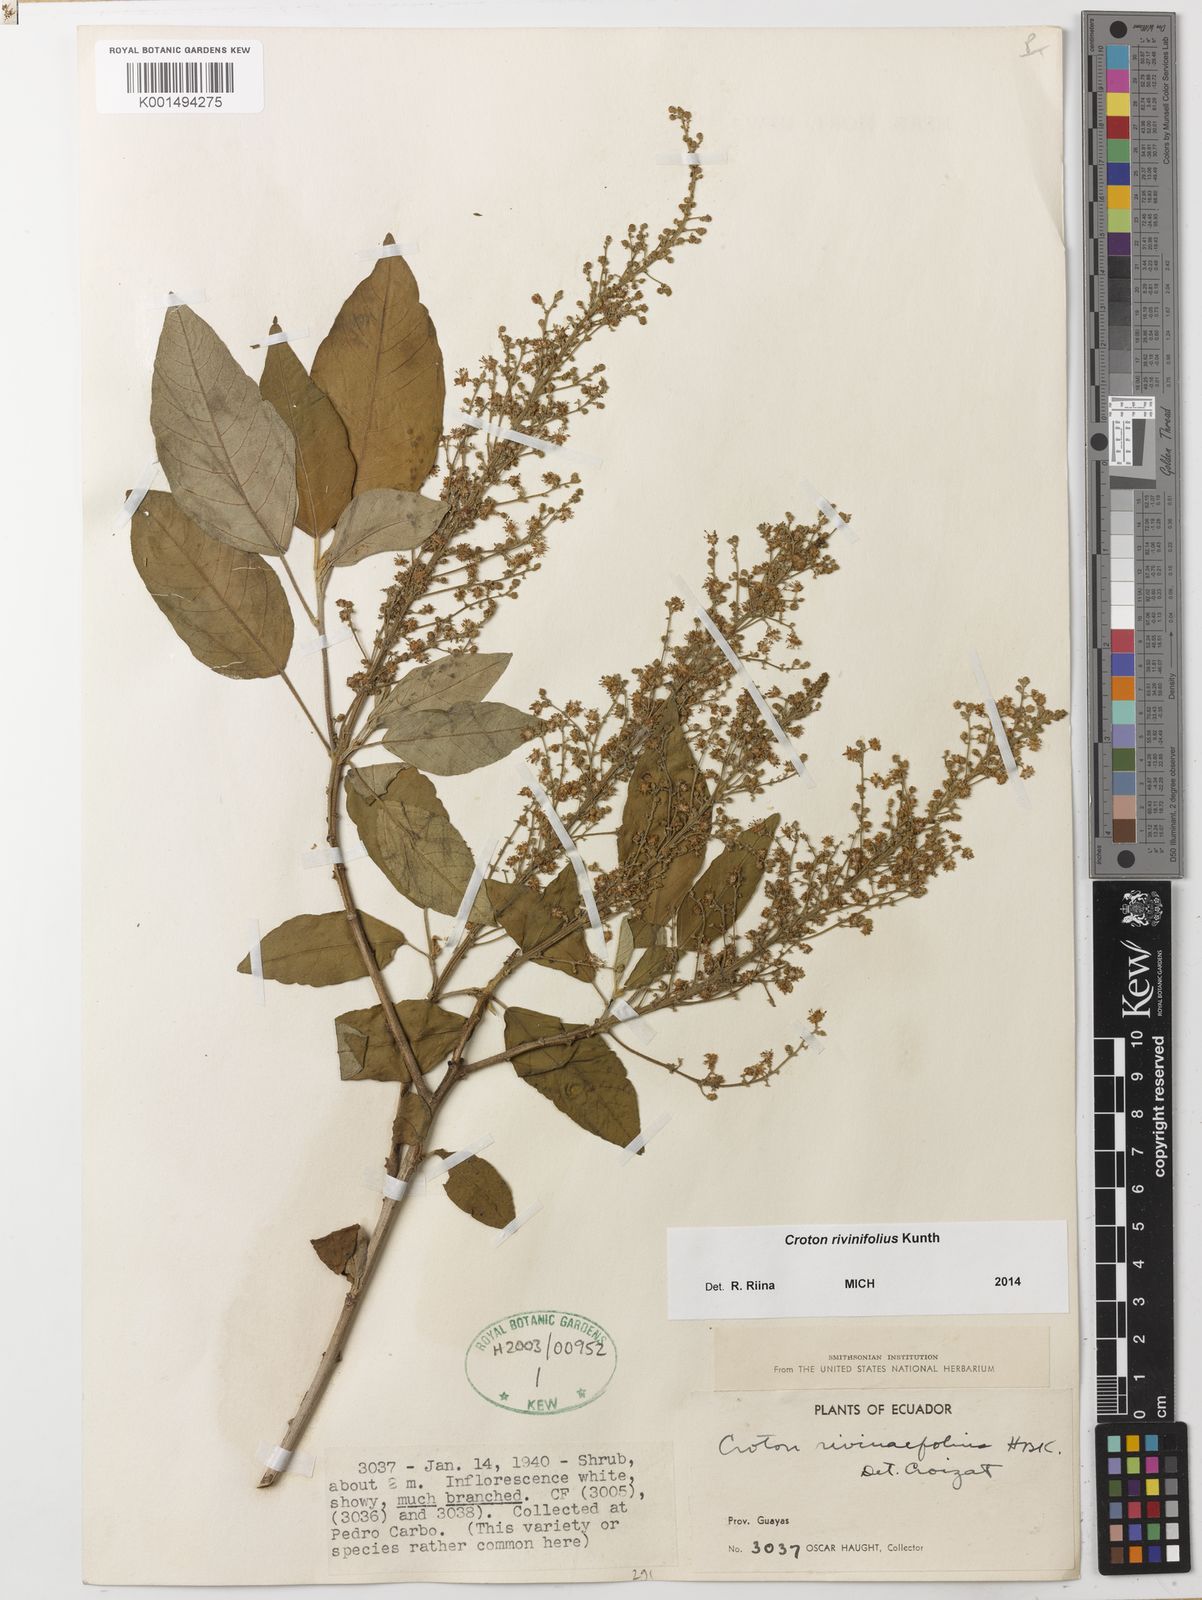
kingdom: Plantae
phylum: Tracheophyta
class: Magnoliopsida
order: Malpighiales
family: Euphorbiaceae
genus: Croton
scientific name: Croton rivinifolius
